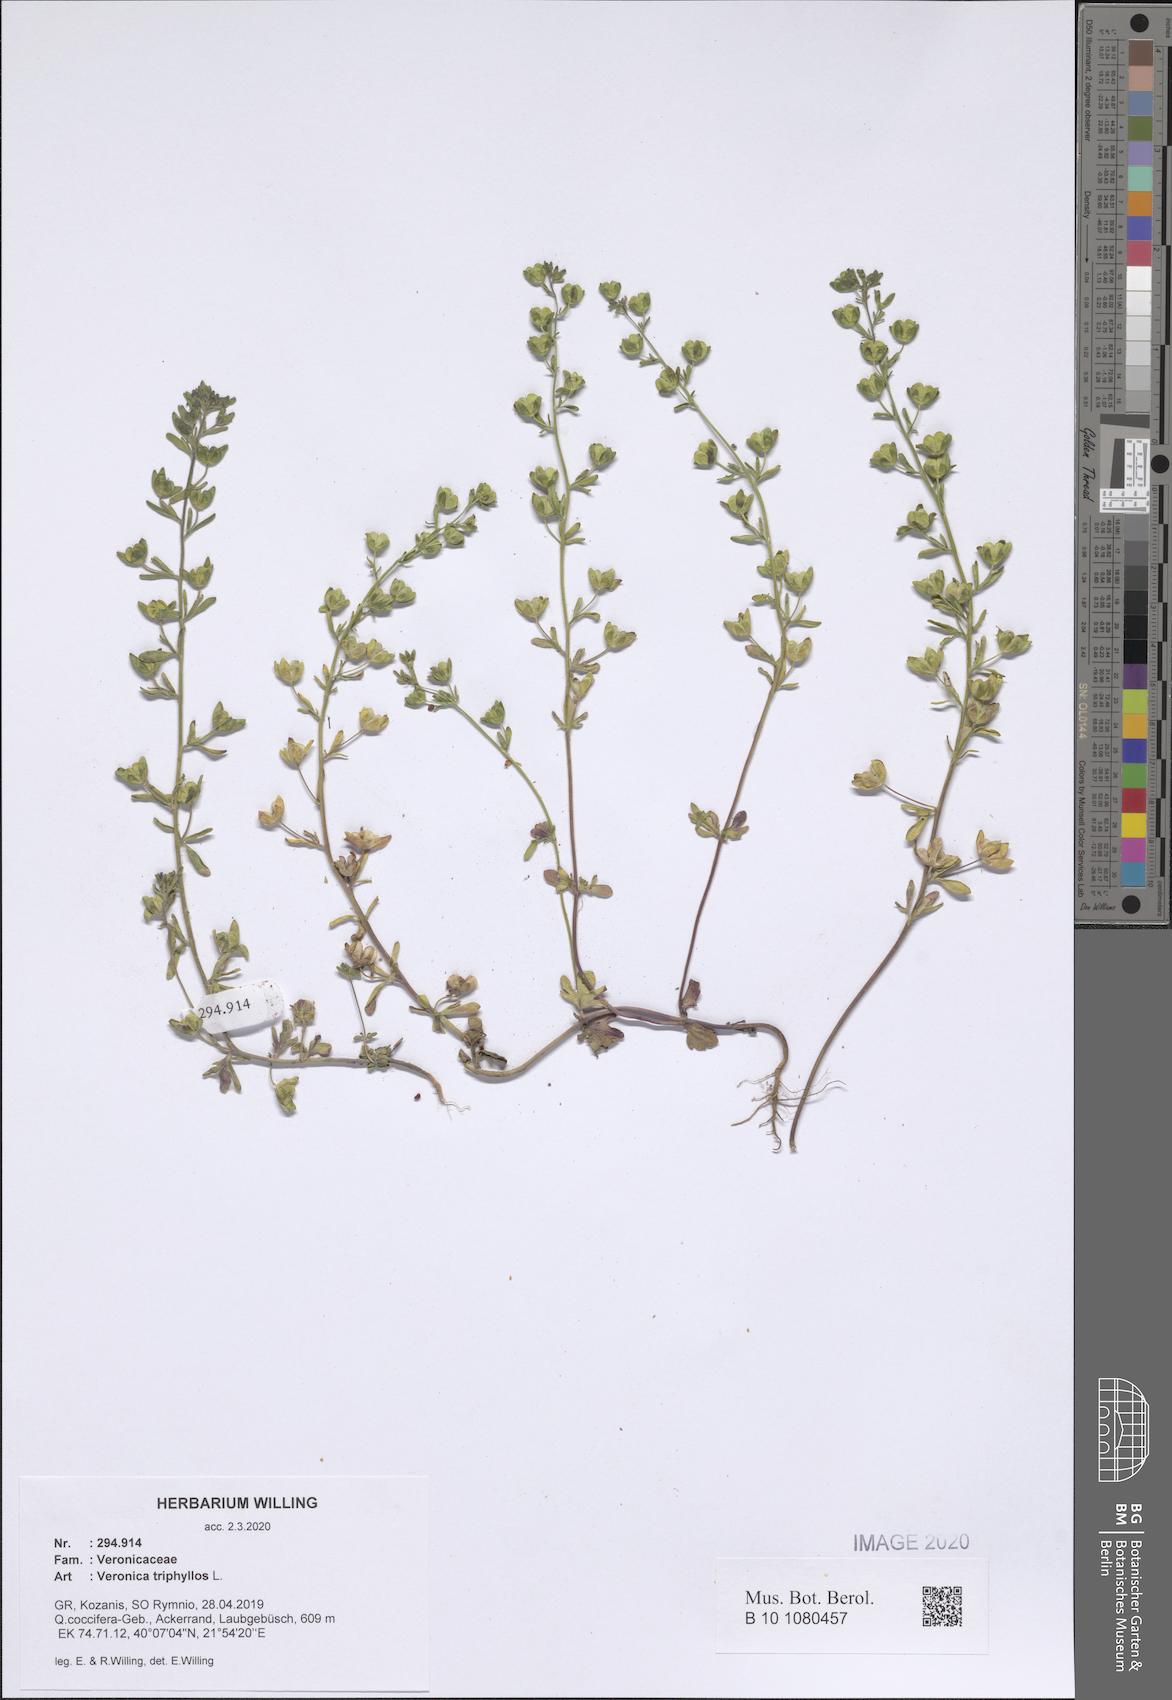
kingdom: Plantae
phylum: Tracheophyta
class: Magnoliopsida
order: Lamiales
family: Plantaginaceae
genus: Veronica
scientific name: Veronica triphyllos
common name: Fingered speedwell
